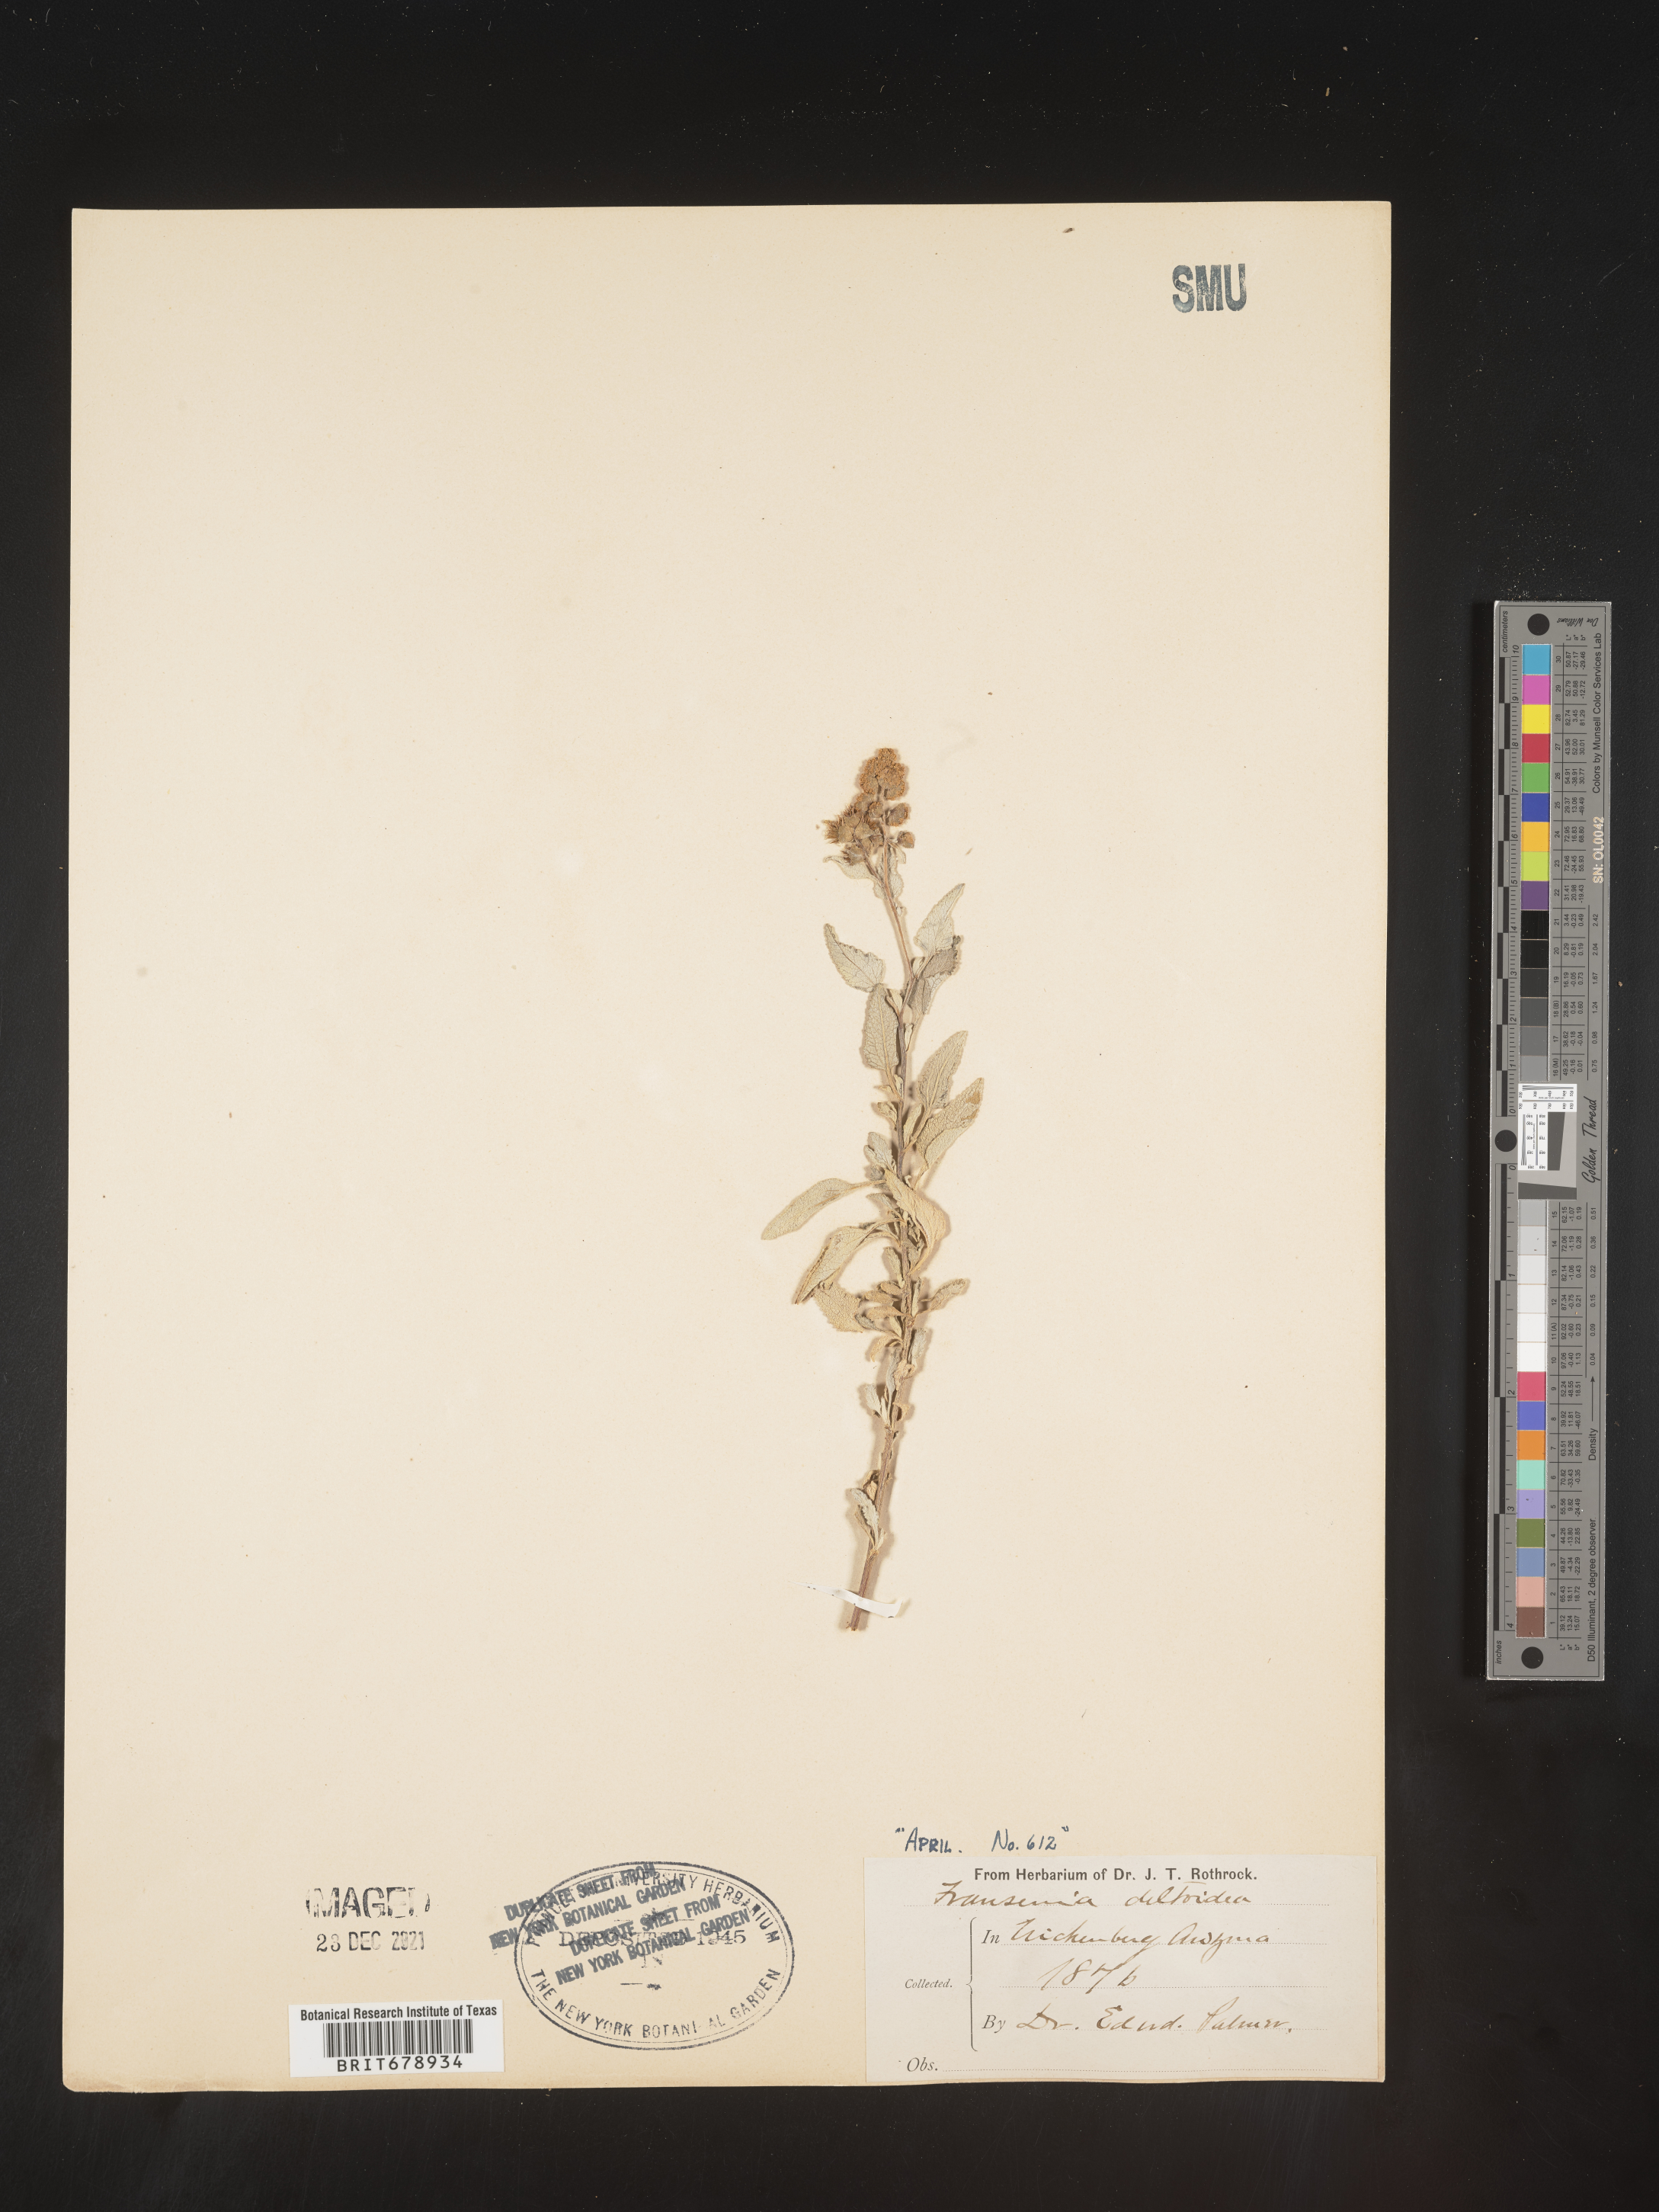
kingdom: Plantae
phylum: Tracheophyta
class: Magnoliopsida
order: Asterales
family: Asteraceae
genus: Ambrosia
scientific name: Ambrosia deltoidea
